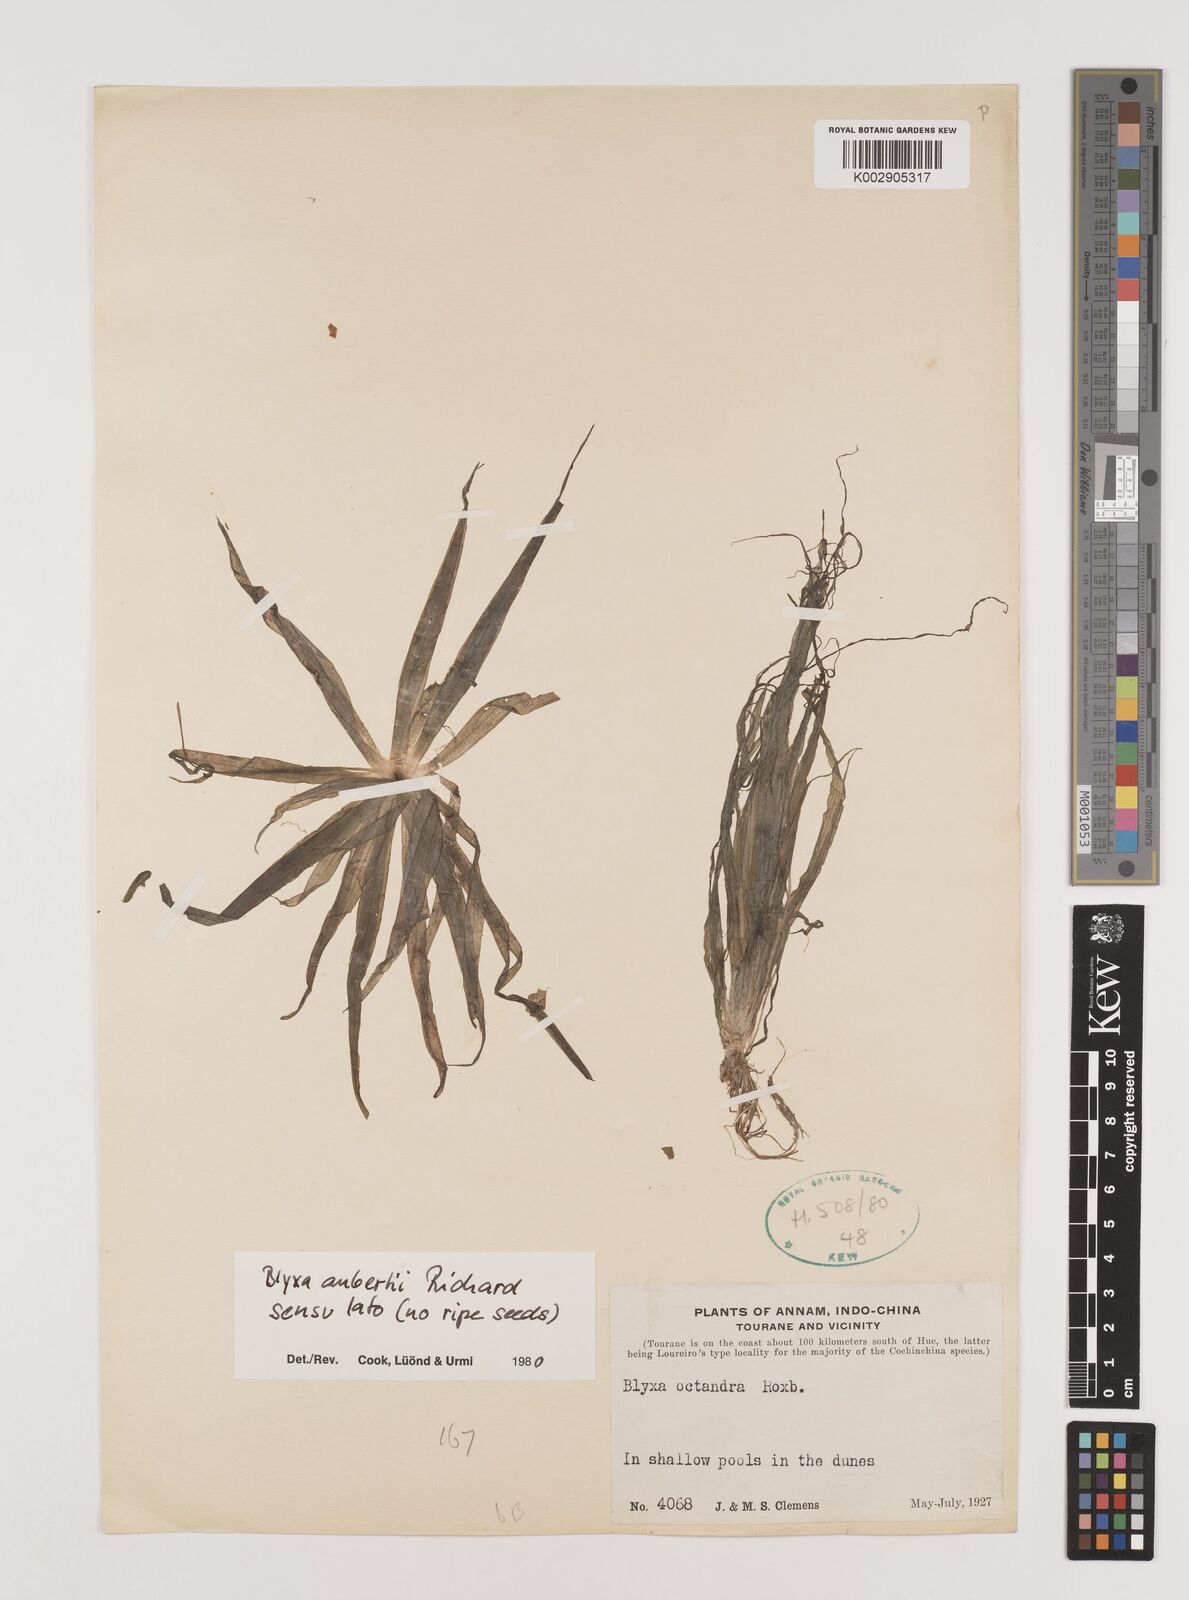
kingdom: Plantae
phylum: Tracheophyta
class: Liliopsida
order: Alismatales
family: Hydrocharitaceae
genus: Blyxa
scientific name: Blyxa aubertii
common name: Roundfruit blyxa
